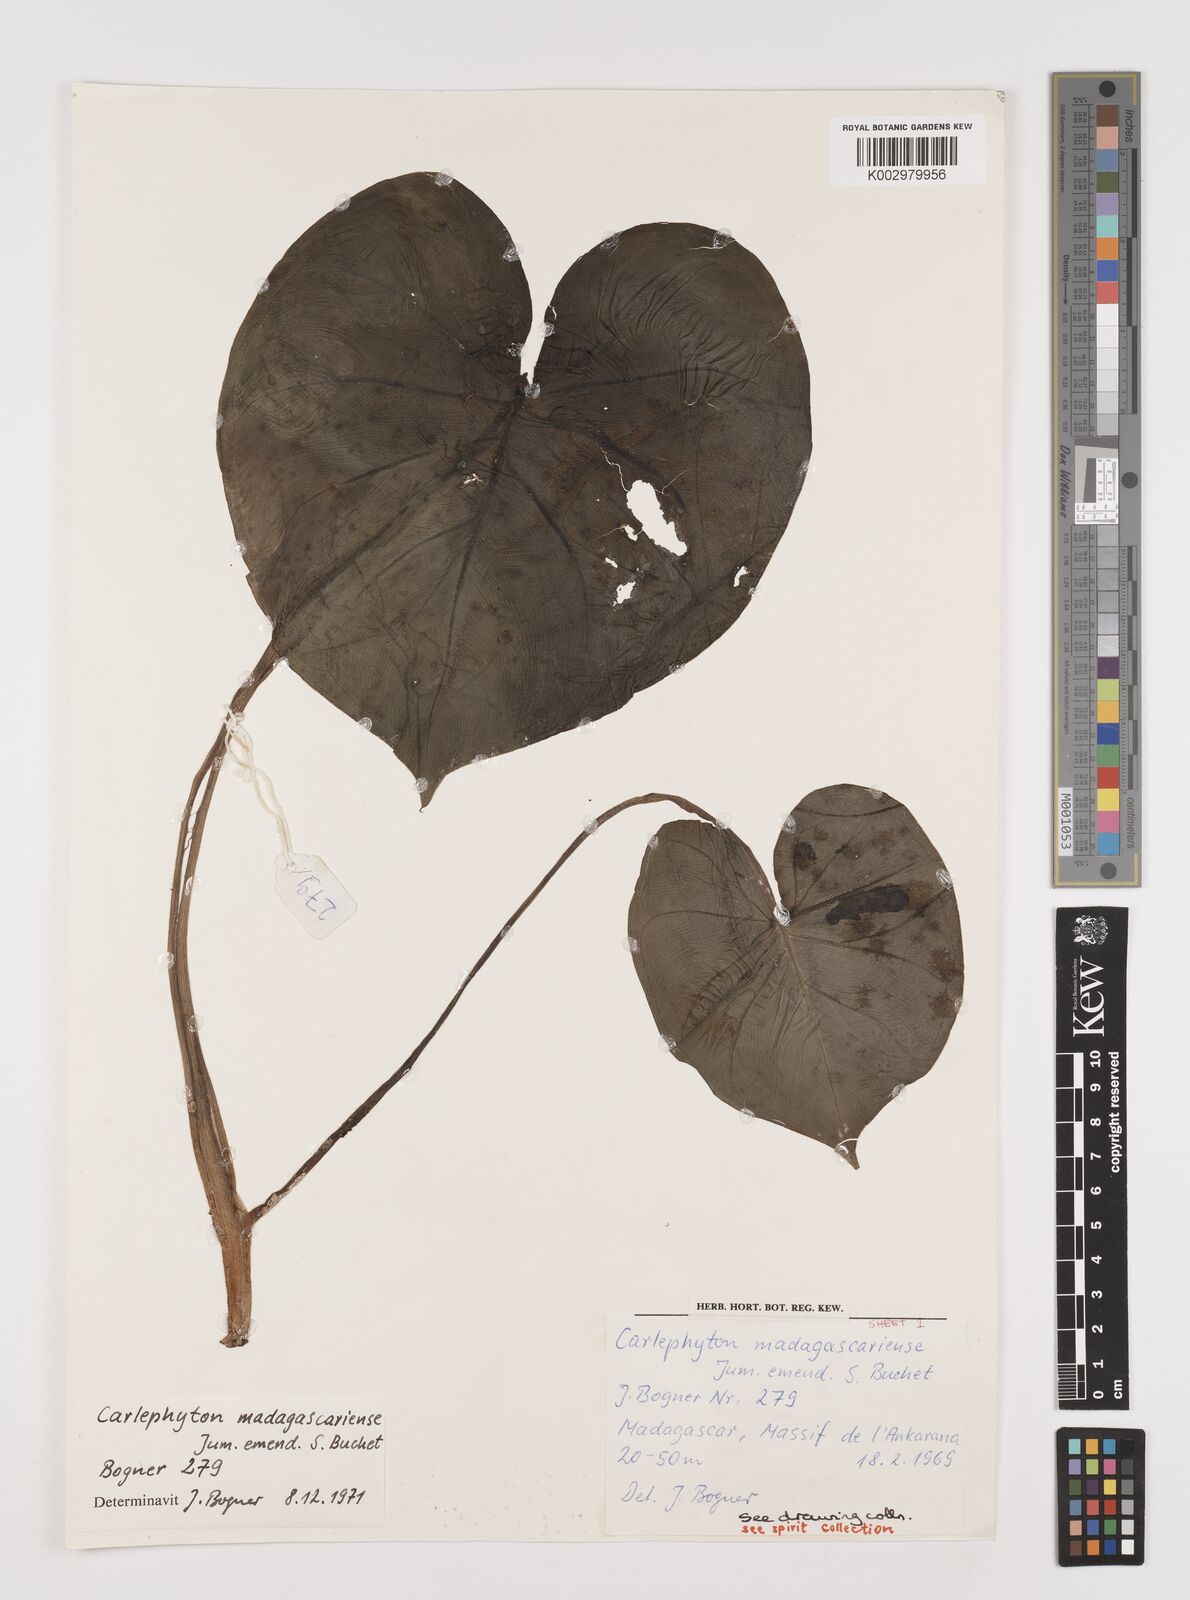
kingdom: Plantae
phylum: Tracheophyta
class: Liliopsida
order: Alismatales
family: Araceae
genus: Carlephyton
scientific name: Carlephyton madagascariense
